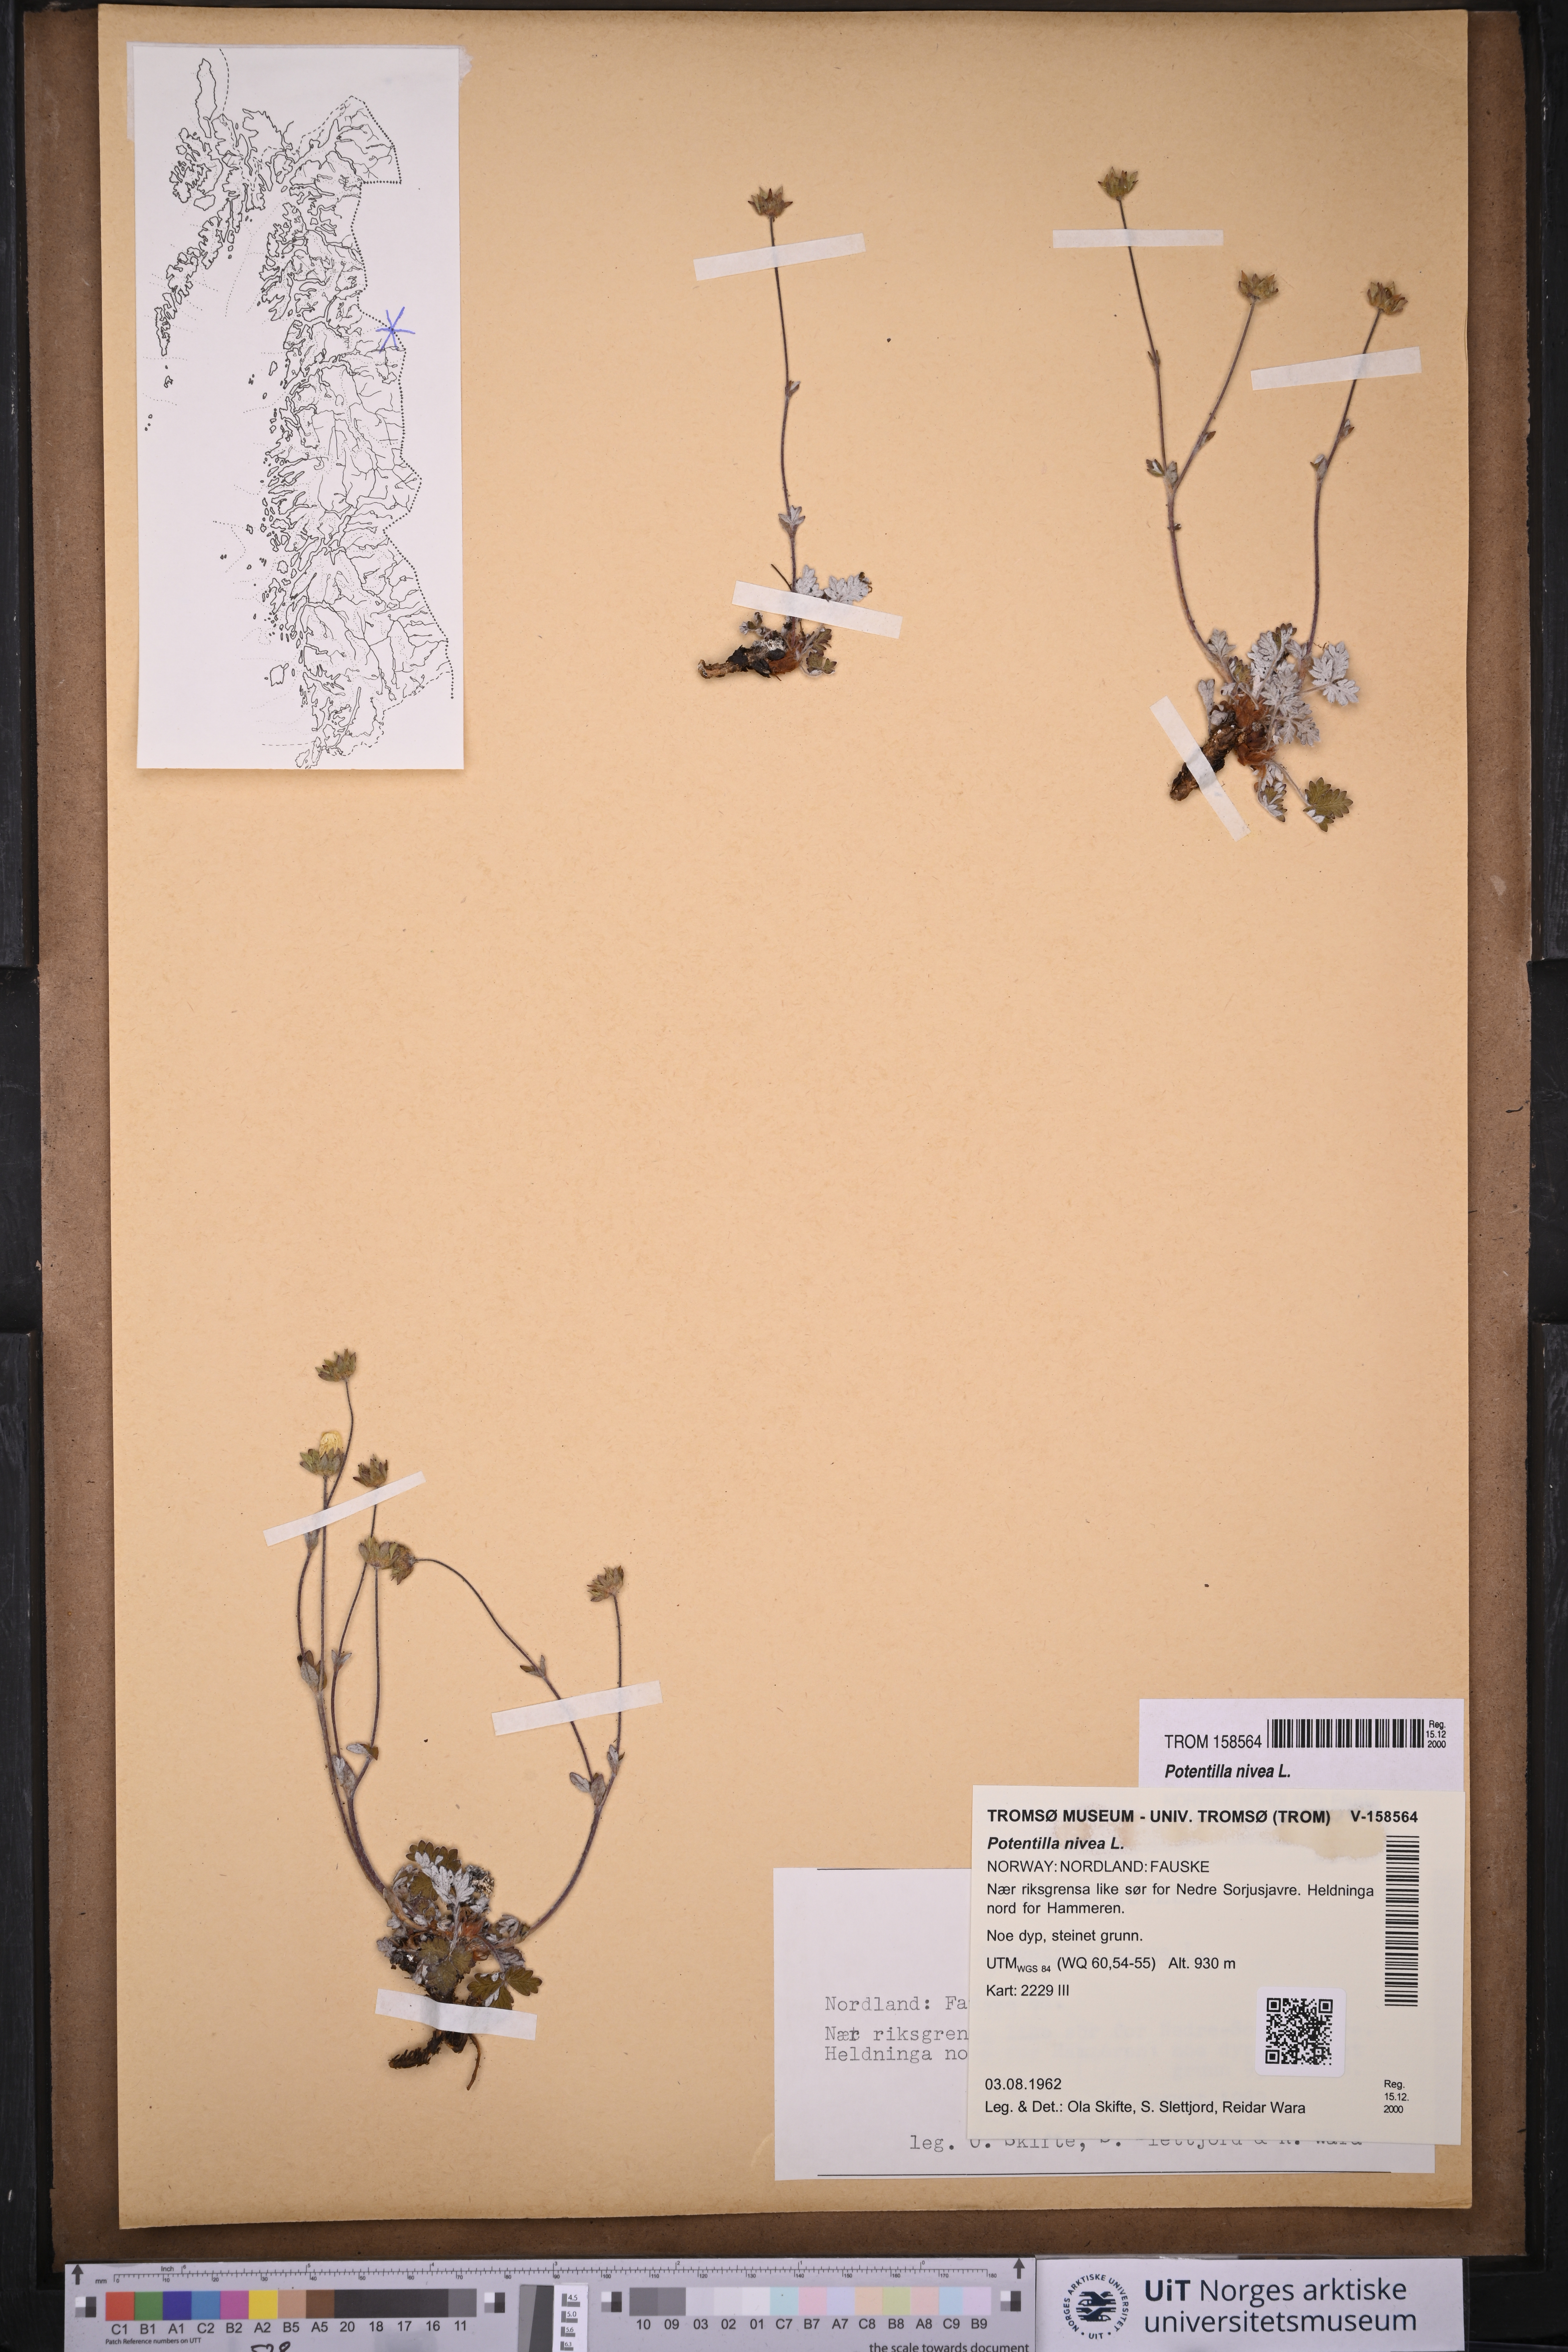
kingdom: Plantae
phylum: Tracheophyta
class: Magnoliopsida
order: Rosales
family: Rosaceae
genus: Potentilla
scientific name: Potentilla arenosa
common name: Bluff cinquefoil
